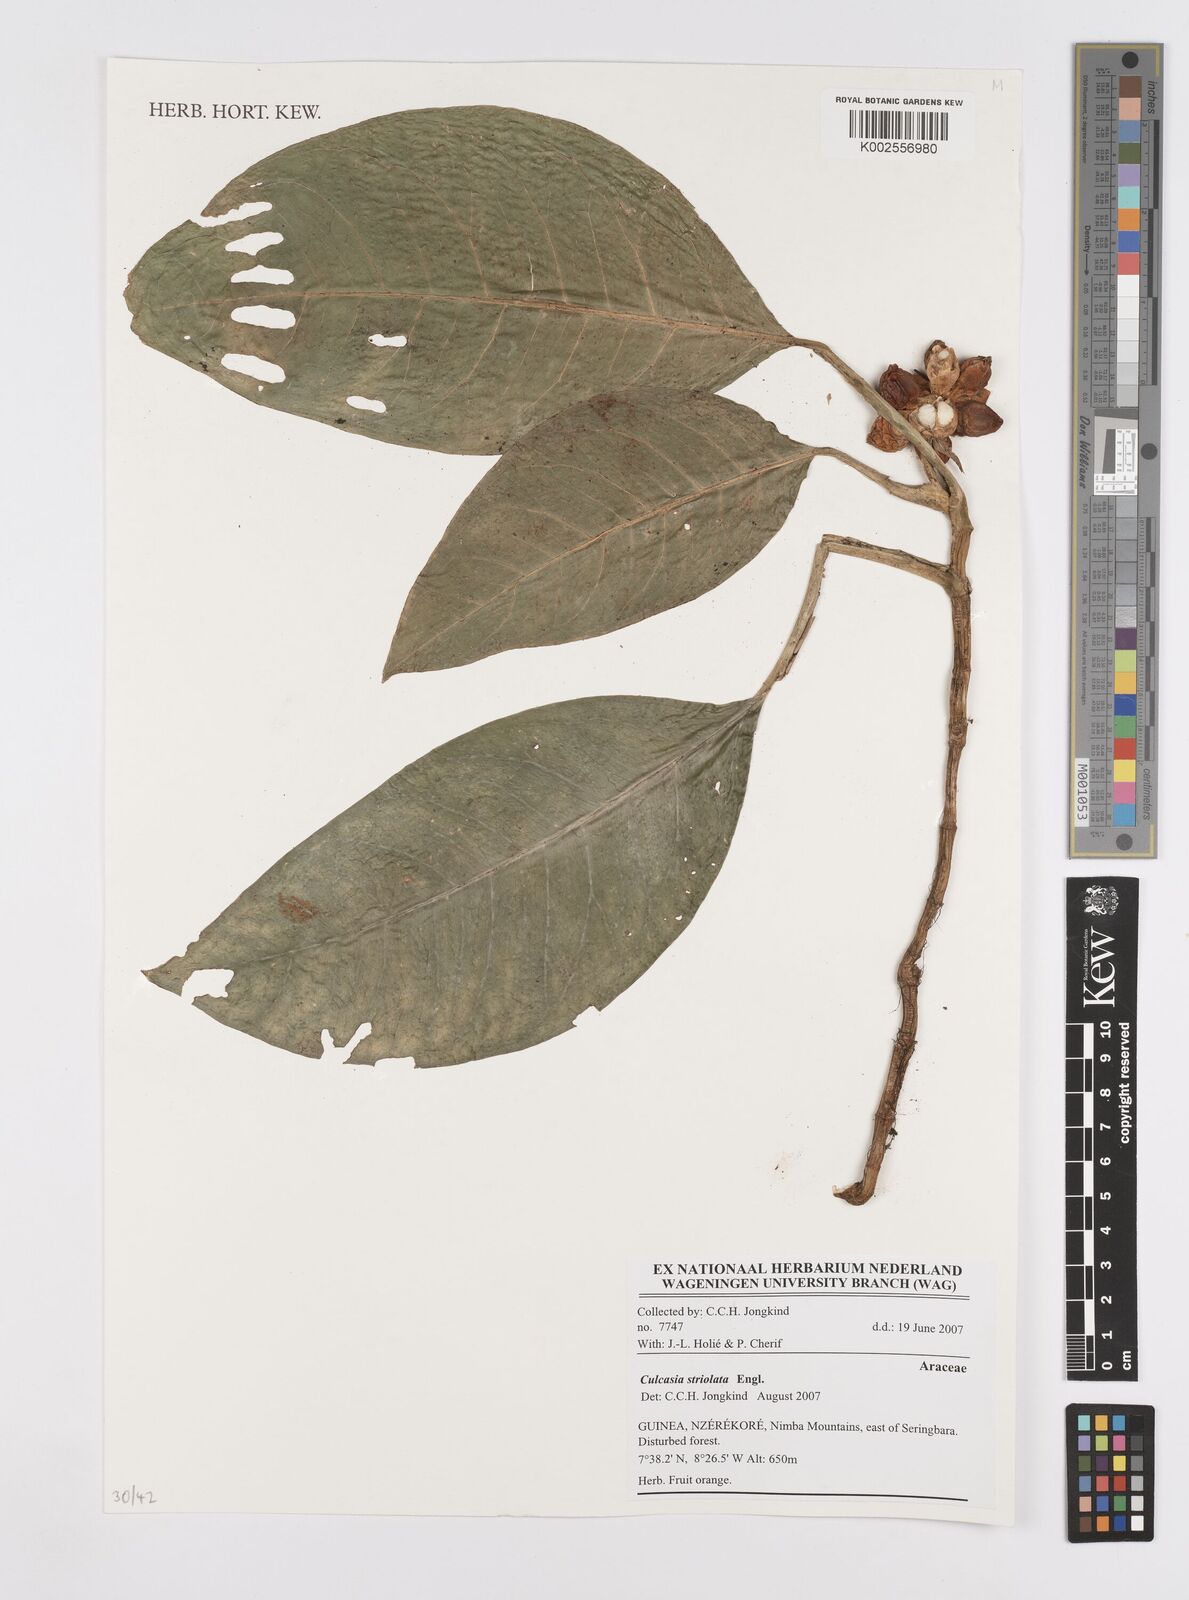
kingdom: Plantae
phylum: Tracheophyta
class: Liliopsida
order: Alismatales
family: Araceae
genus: Culcasia
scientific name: Culcasia striolata
